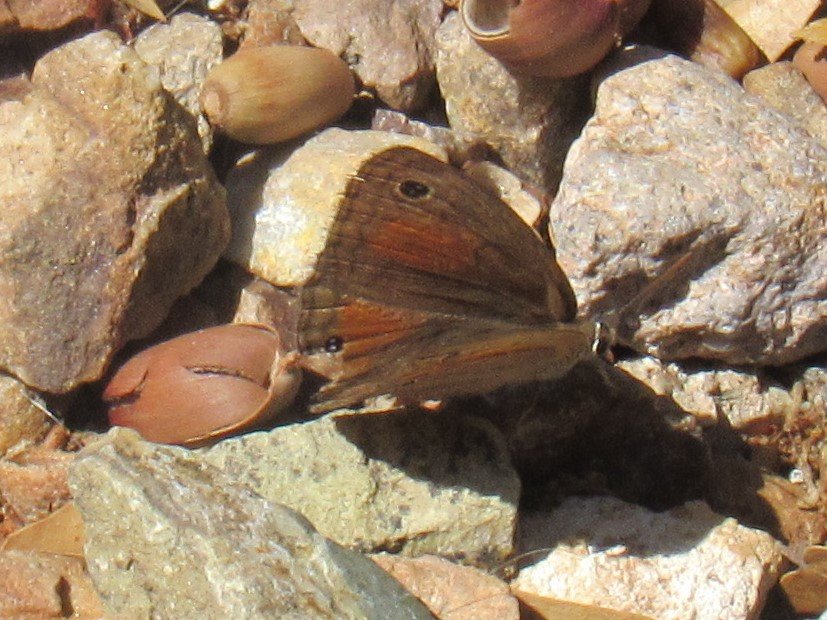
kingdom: Animalia
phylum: Arthropoda
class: Insecta
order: Lepidoptera
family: Nymphalidae
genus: Euptychia
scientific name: Euptychia rubricata
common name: Red Satyr
